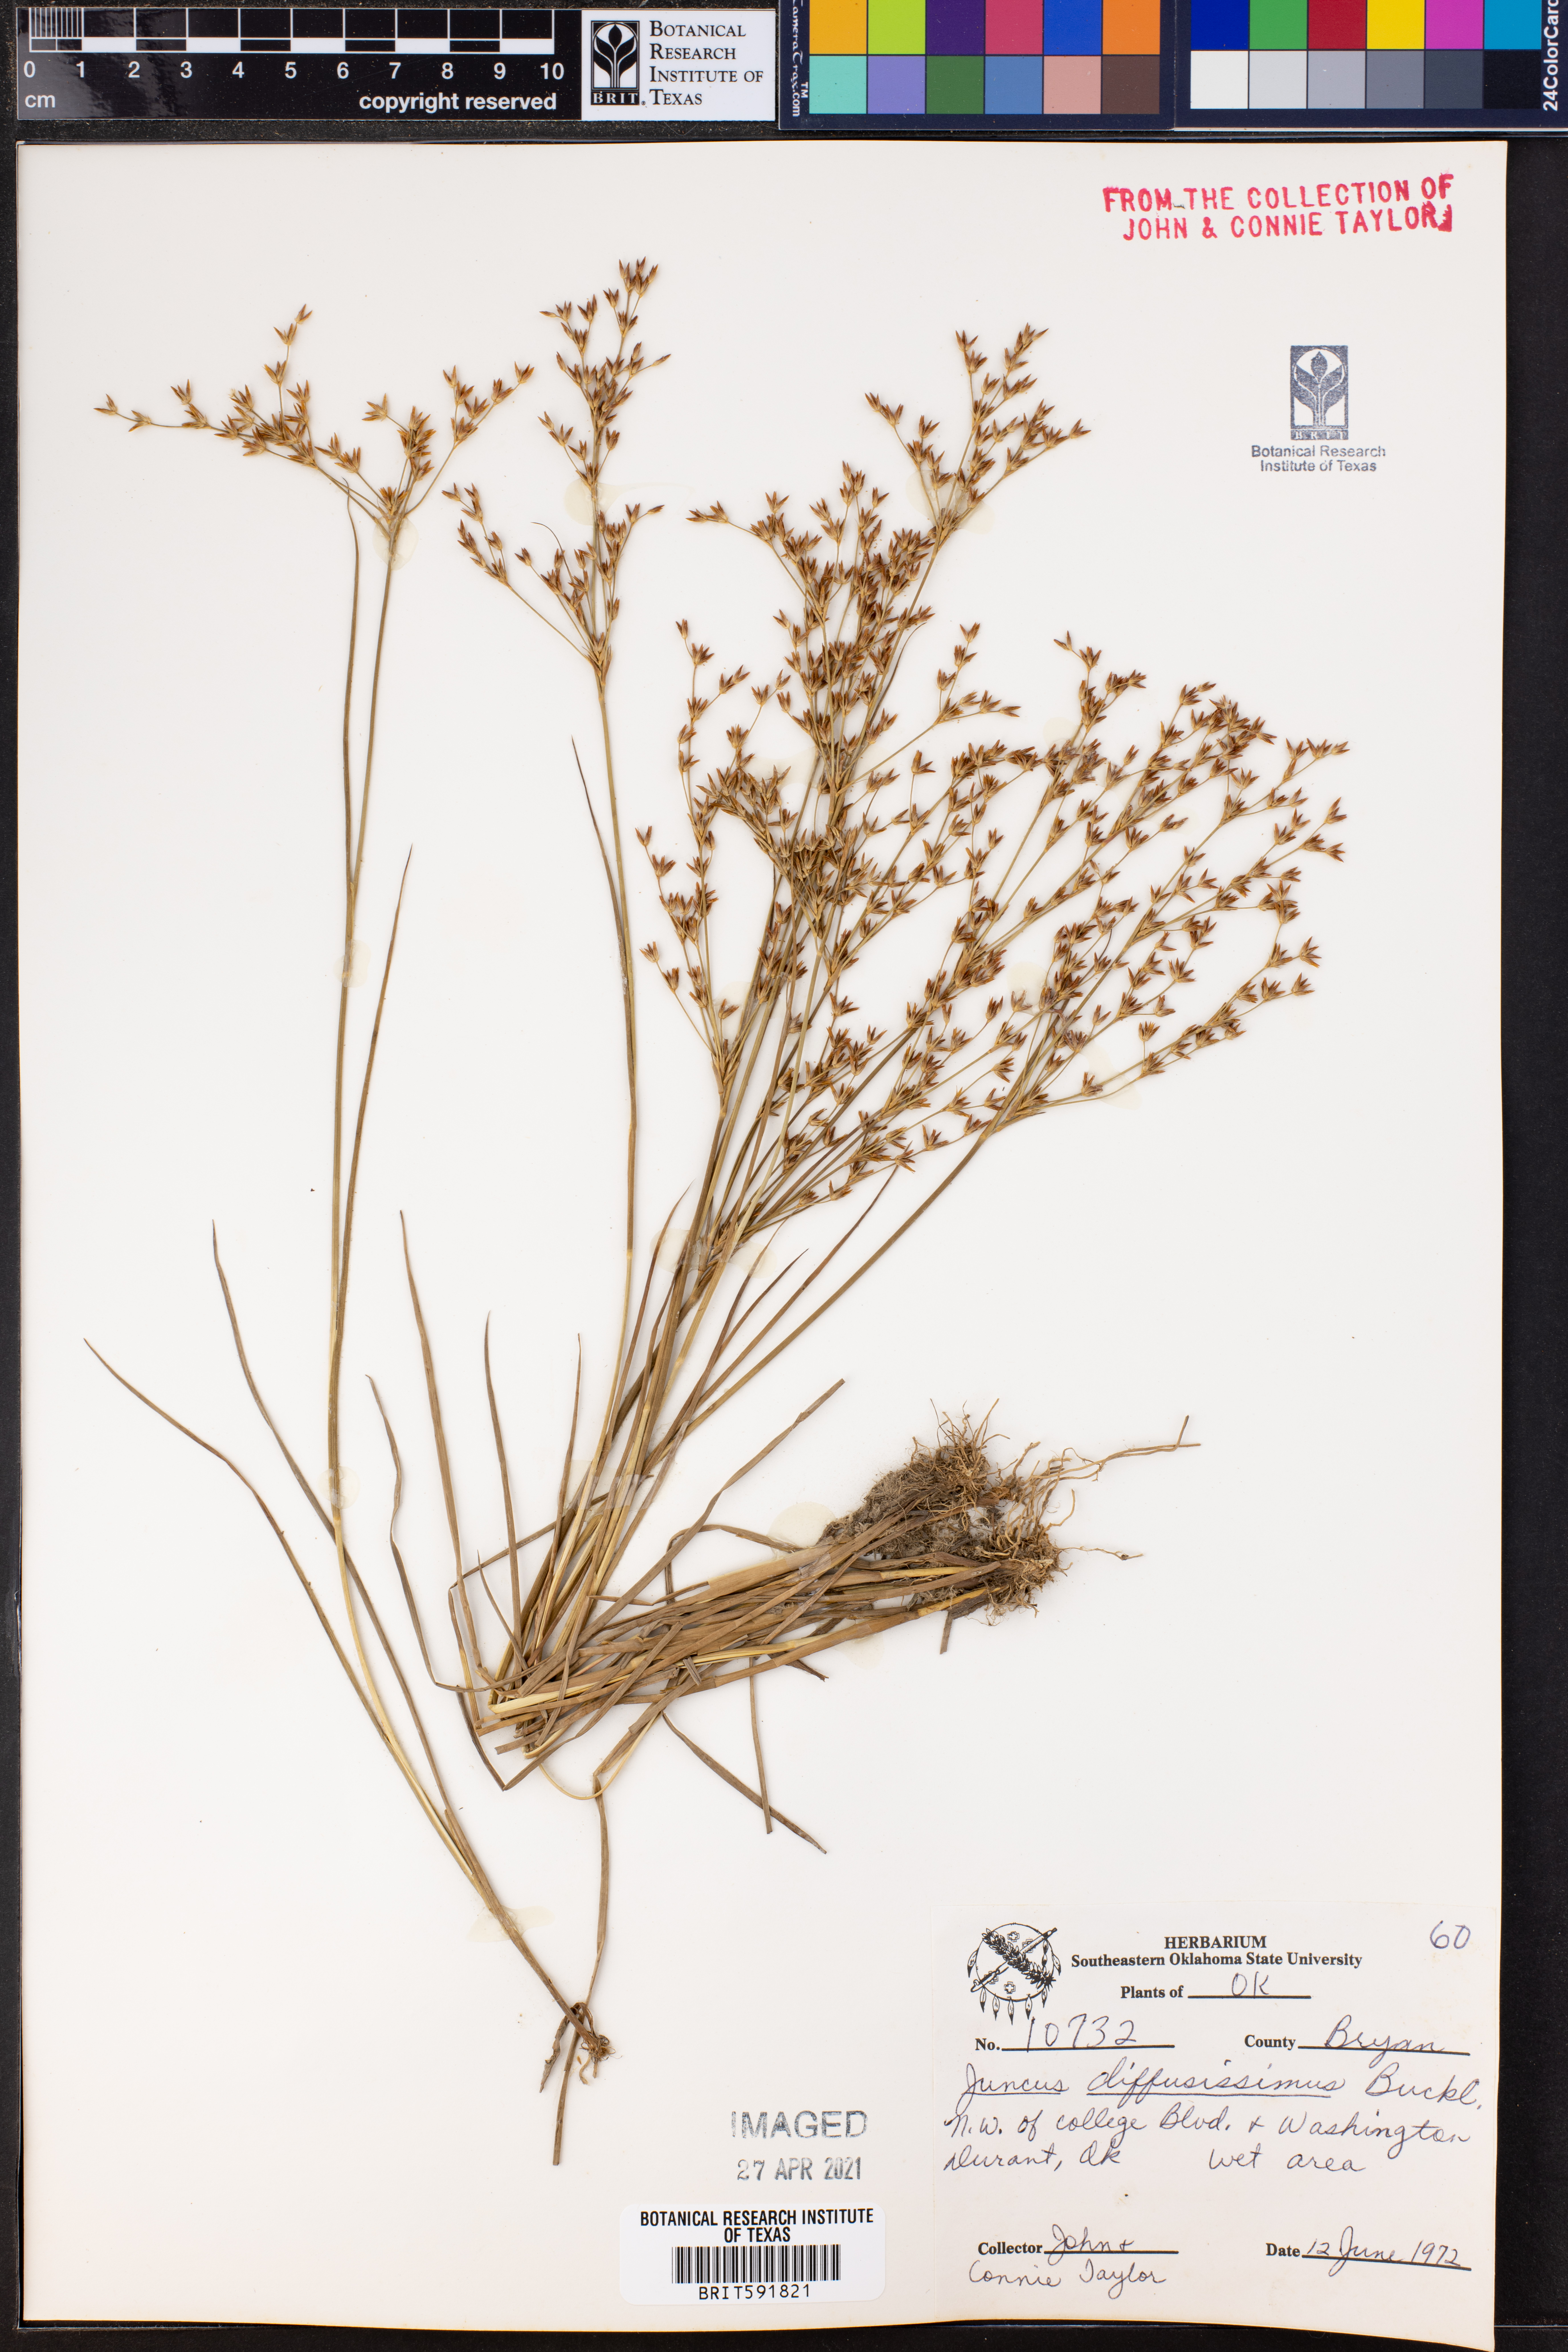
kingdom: Plantae
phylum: Tracheophyta
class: Liliopsida
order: Poales
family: Juncaceae
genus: Juncus
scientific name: Juncus diffusissimus
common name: Slimpod rush
